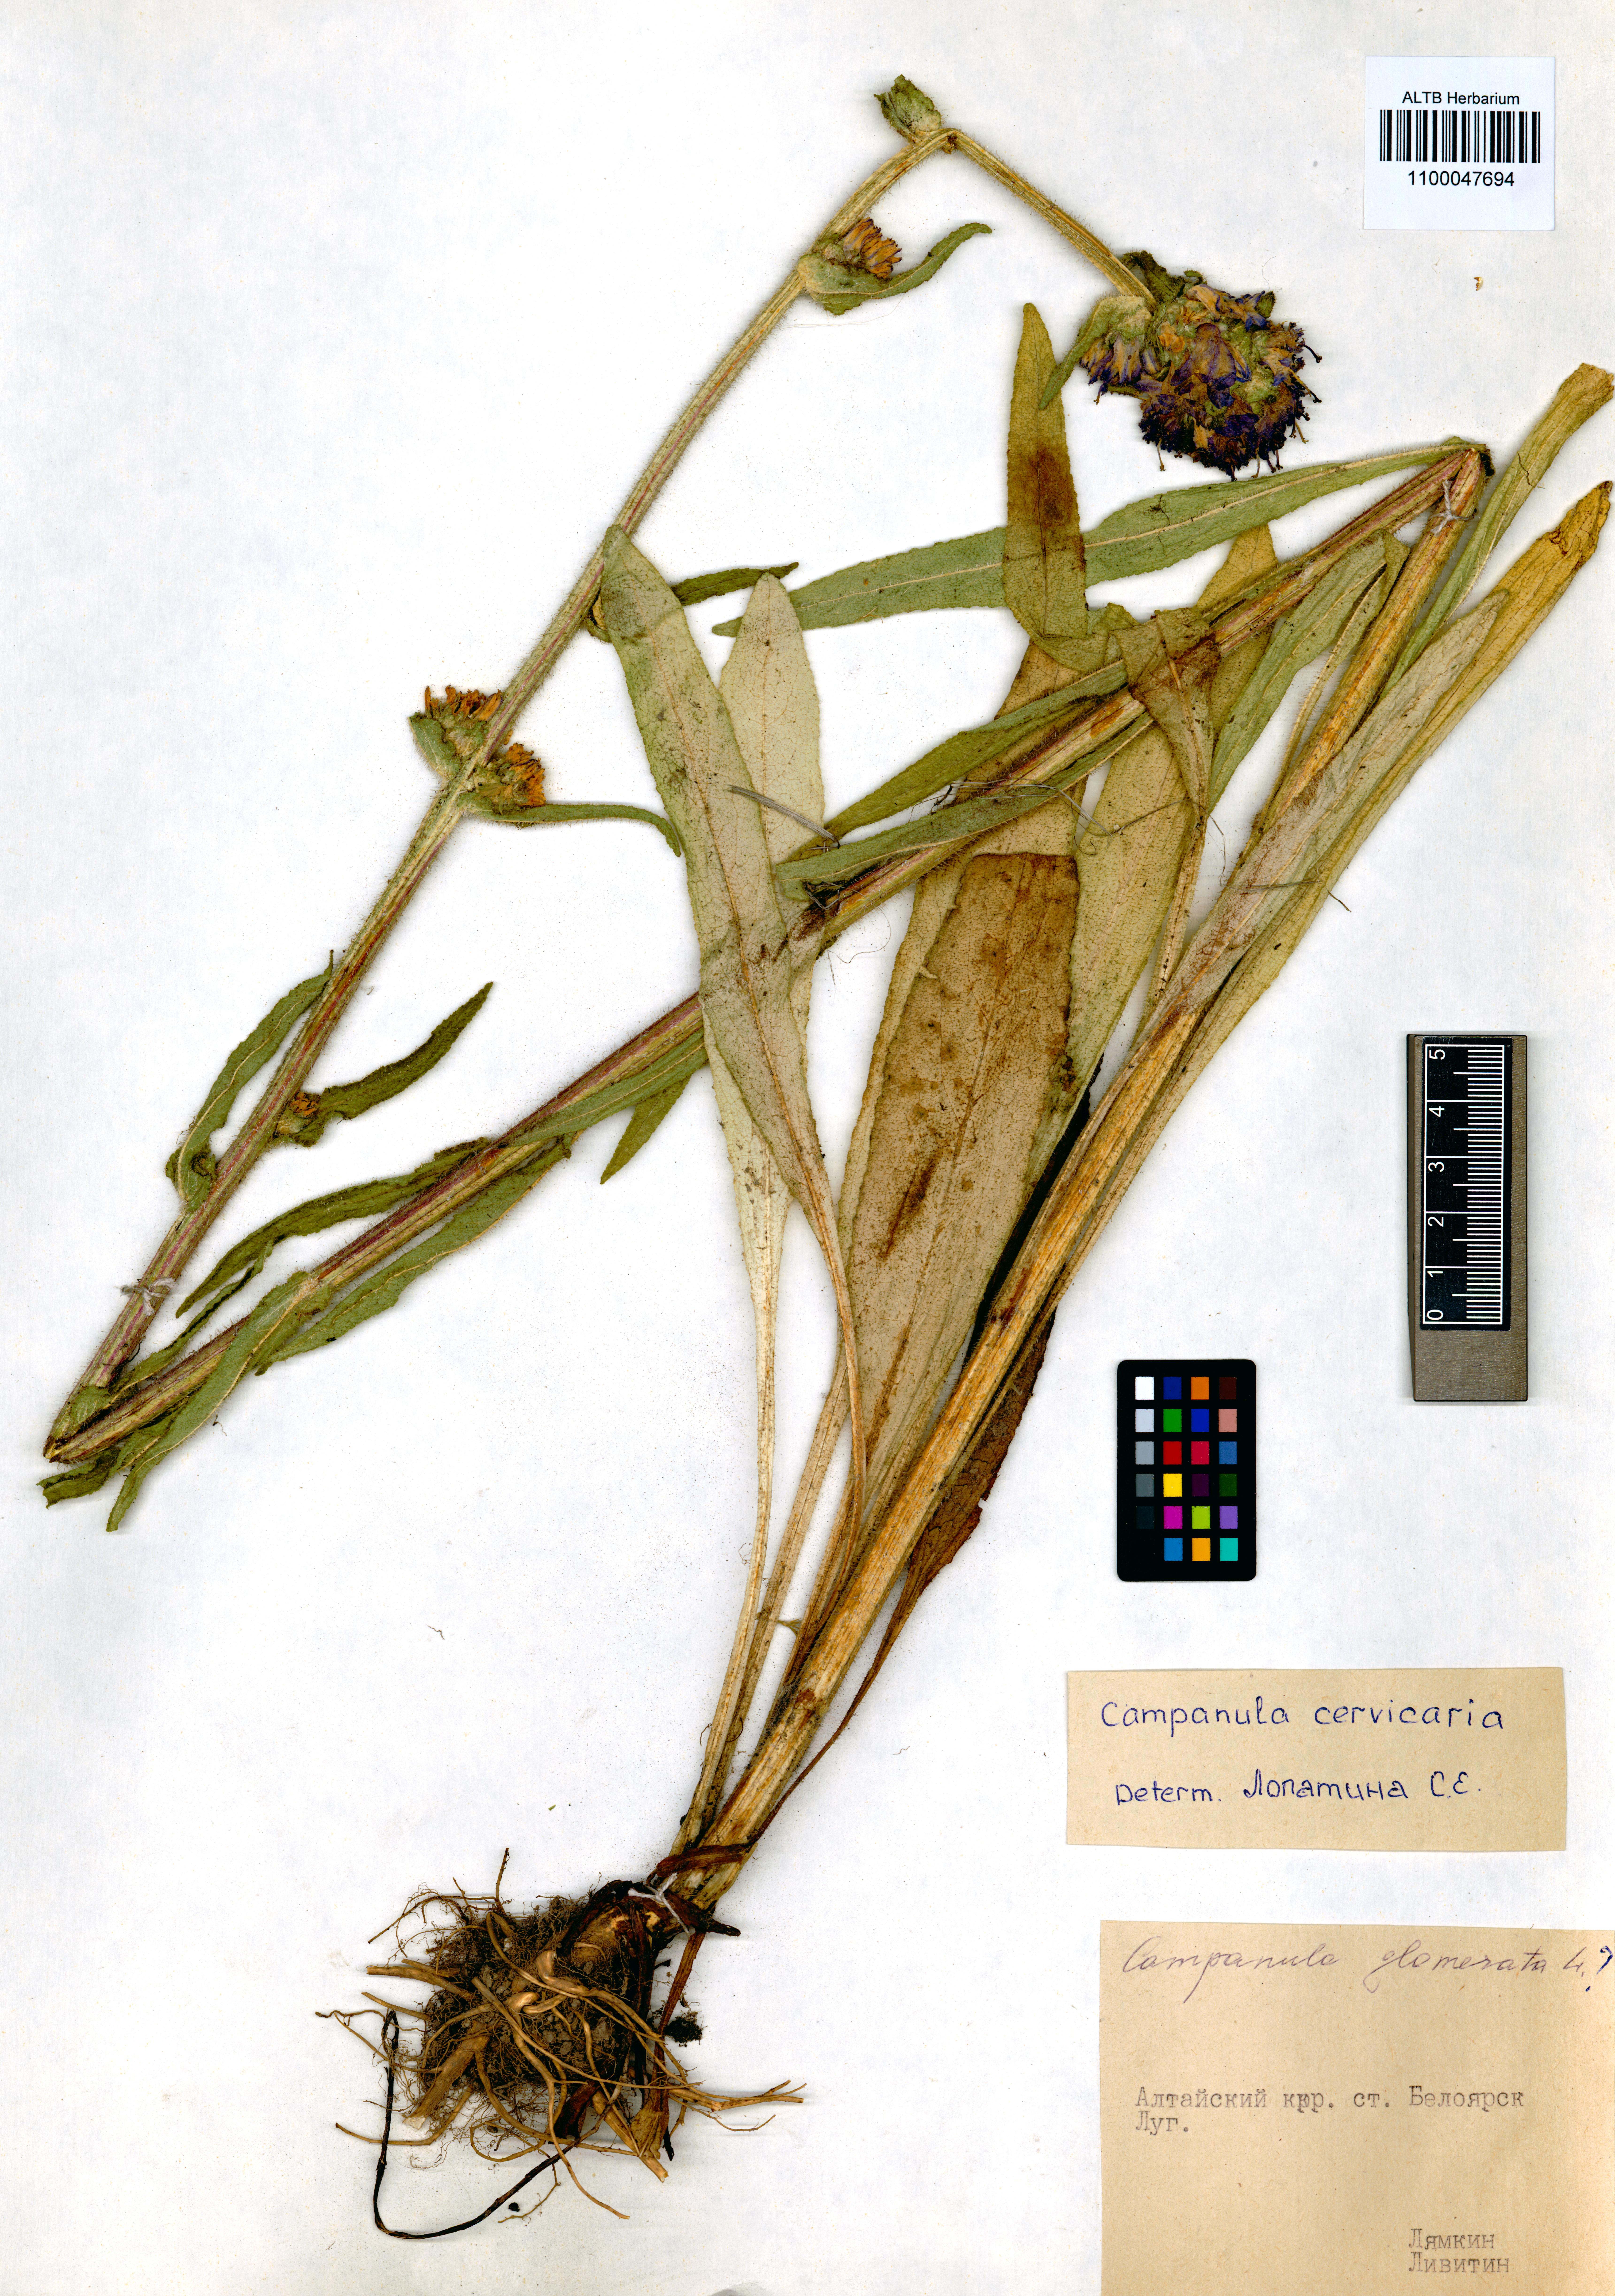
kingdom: Plantae
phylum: Tracheophyta
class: Magnoliopsida
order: Asterales
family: Campanulaceae
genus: Campanula
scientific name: Campanula cervicaria
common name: Bristly bellflower
